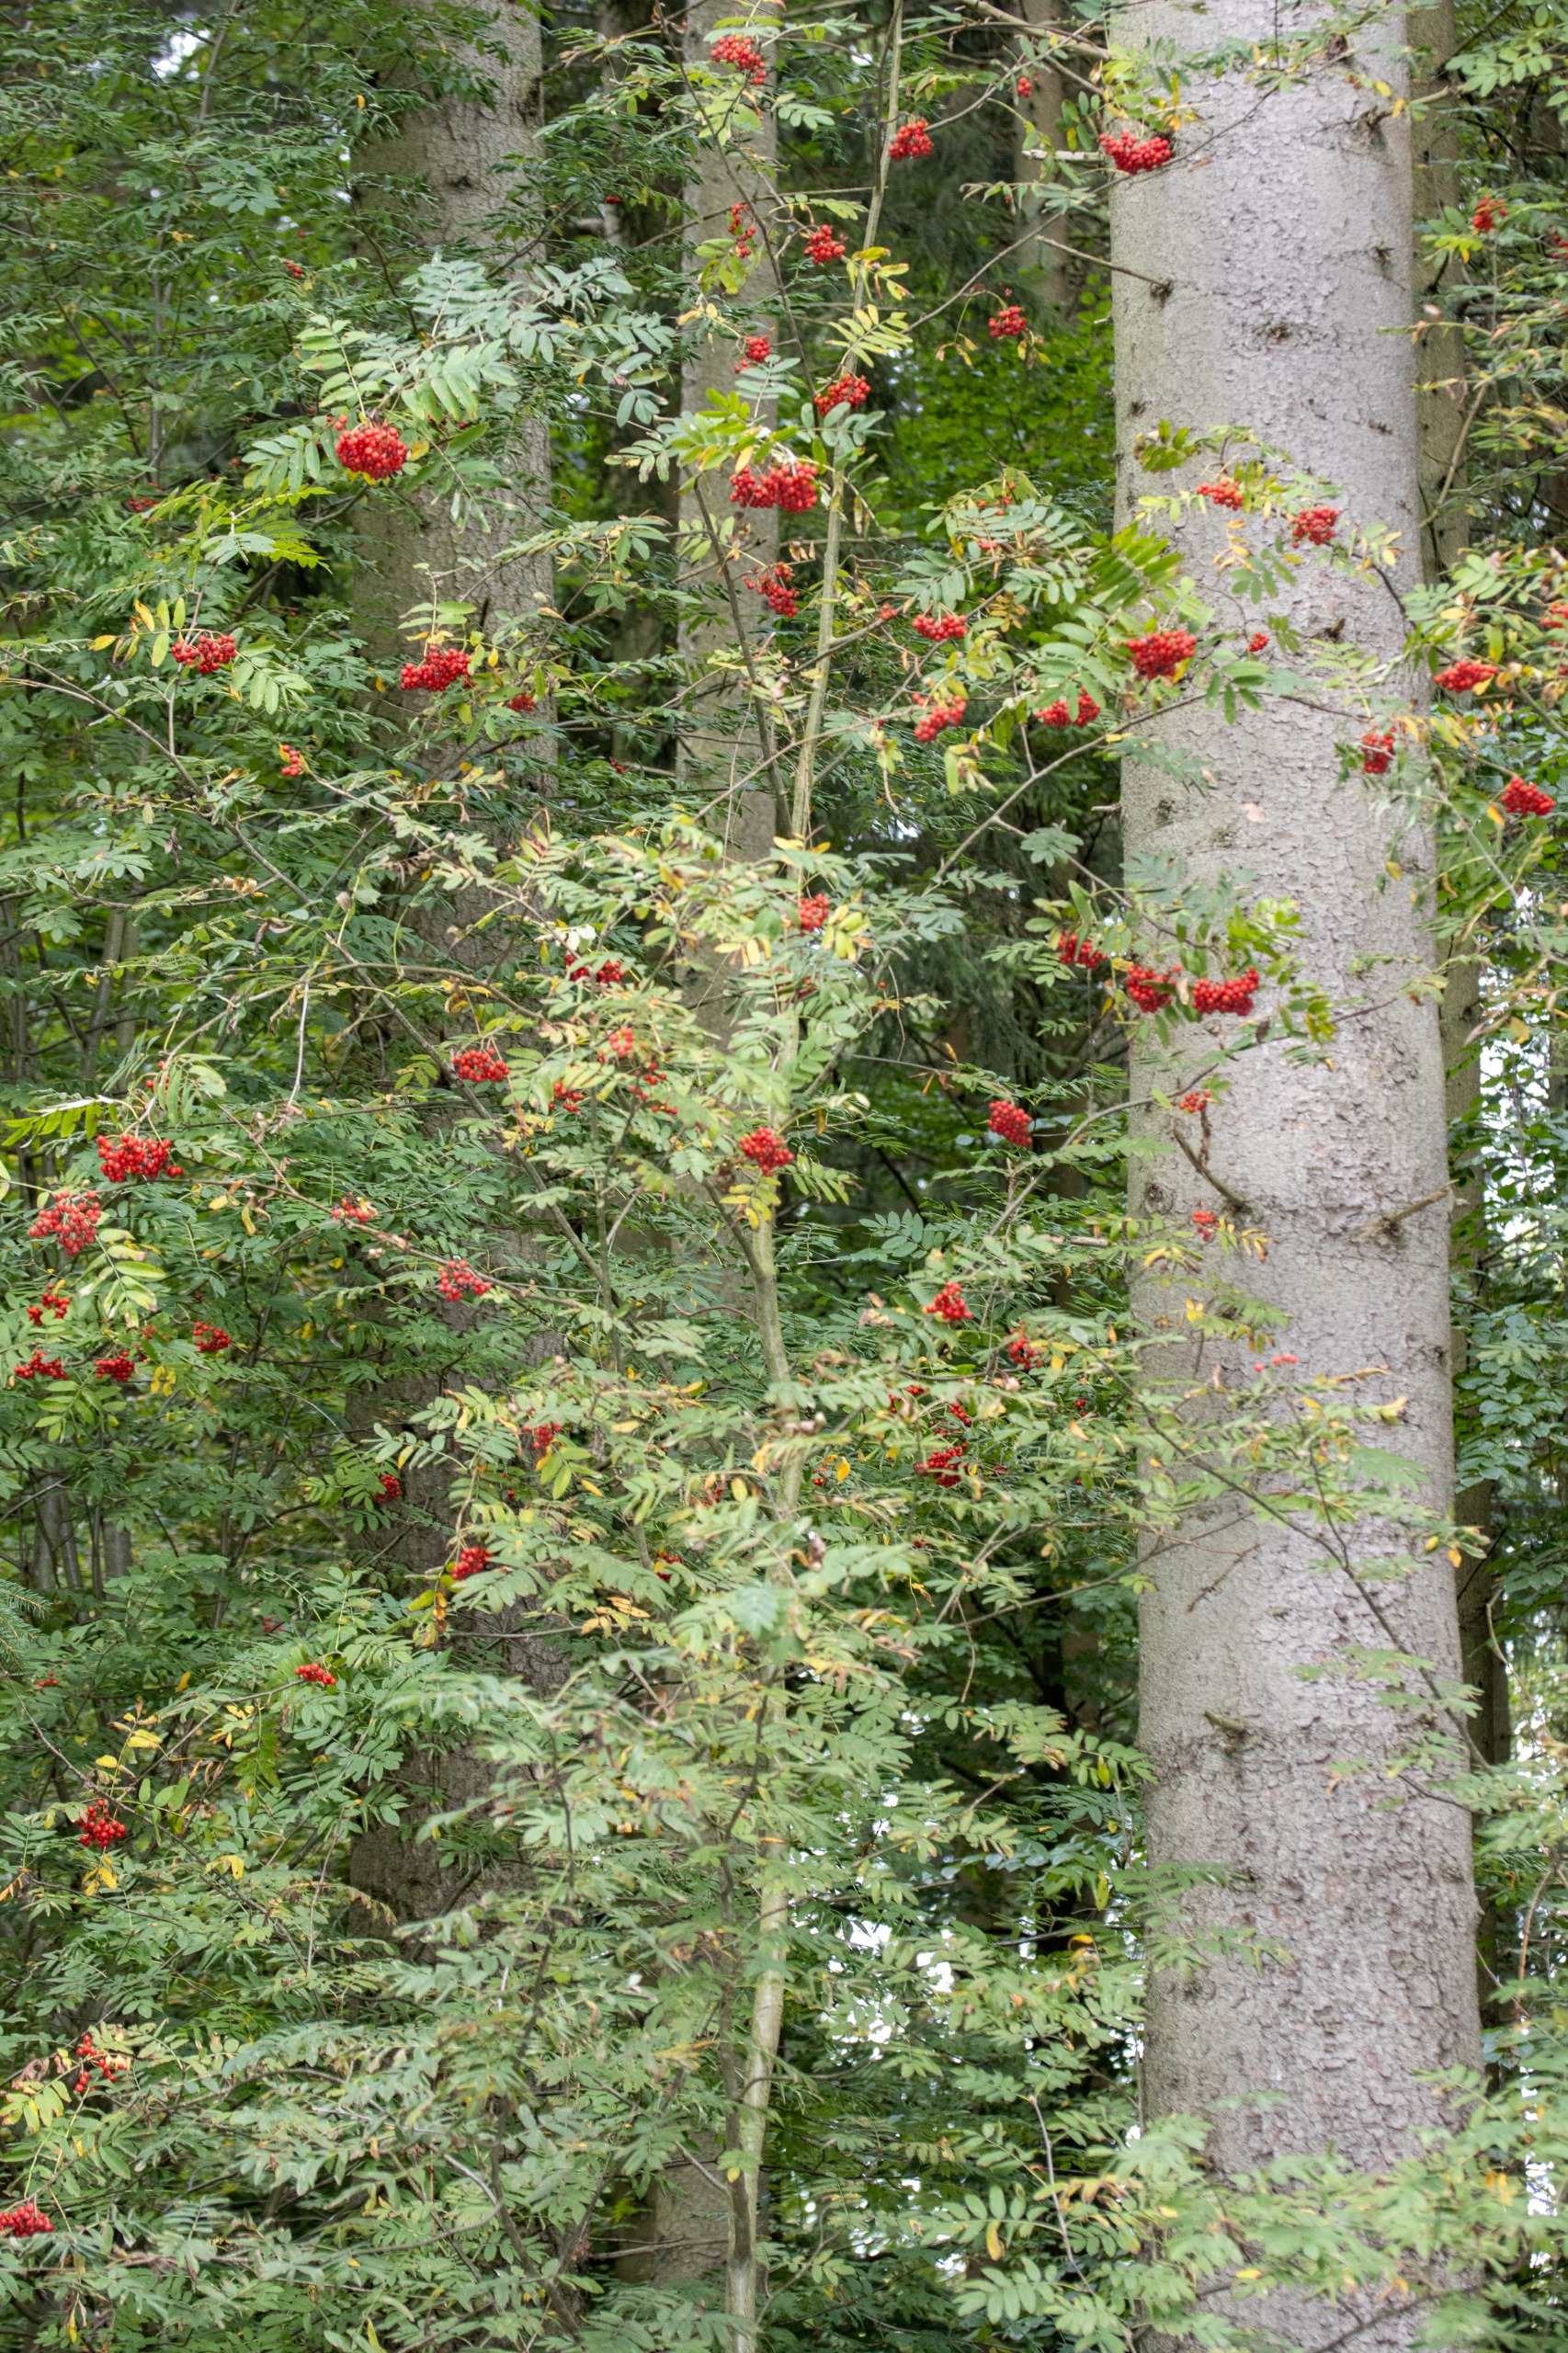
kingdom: Plantae
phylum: Tracheophyta
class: Magnoliopsida
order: Rosales
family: Rosaceae
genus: Sorbus
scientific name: Sorbus aucuparia
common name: Almindelig røn
